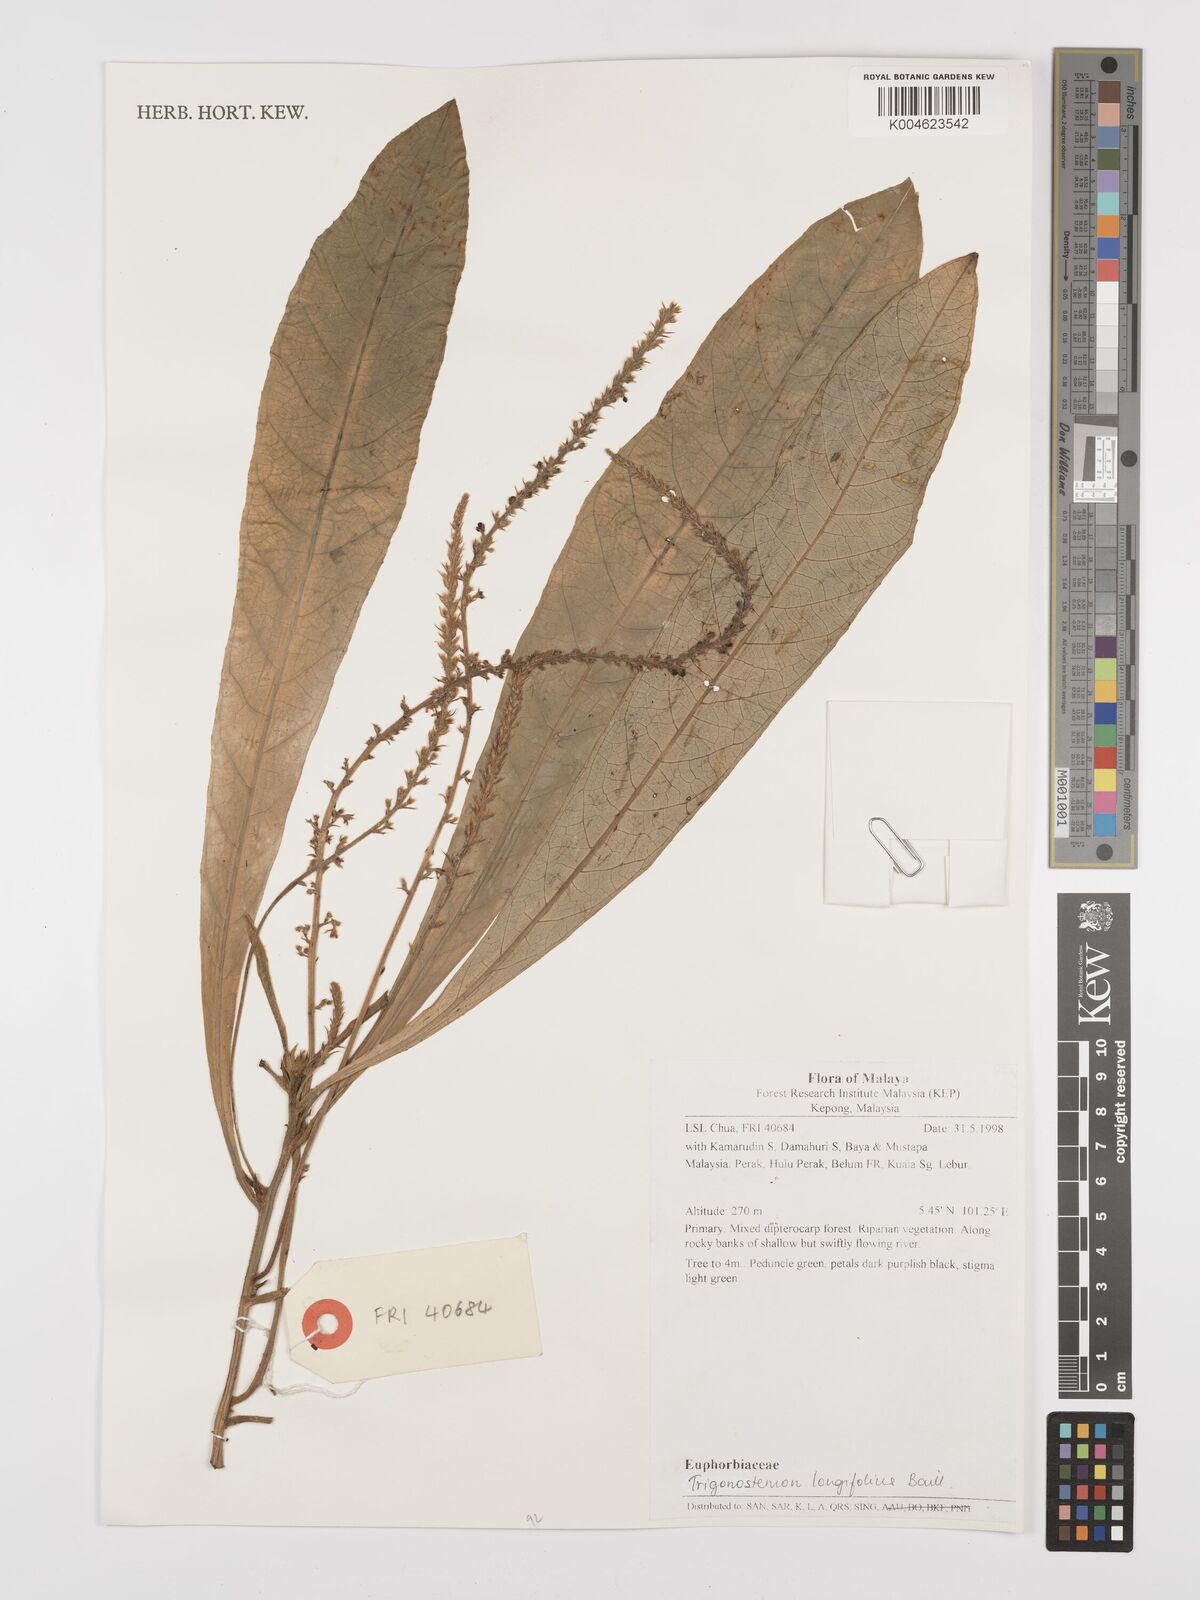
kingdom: Plantae
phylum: Tracheophyta
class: Magnoliopsida
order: Malpighiales
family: Euphorbiaceae
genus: Trigonostemon
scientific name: Trigonostemon longifolius
